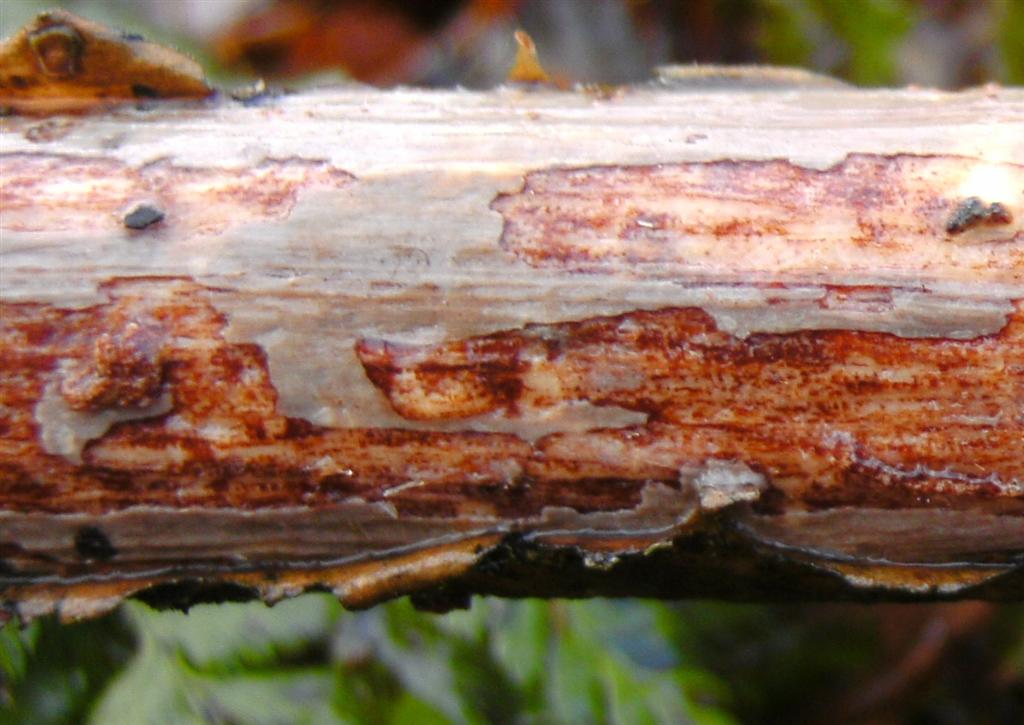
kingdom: Fungi
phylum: Basidiomycota
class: Agaricomycetes
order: Corticiales
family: Vuilleminiaceae
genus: Vuilleminia
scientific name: Vuilleminia comedens
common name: almindelig barksprænger
